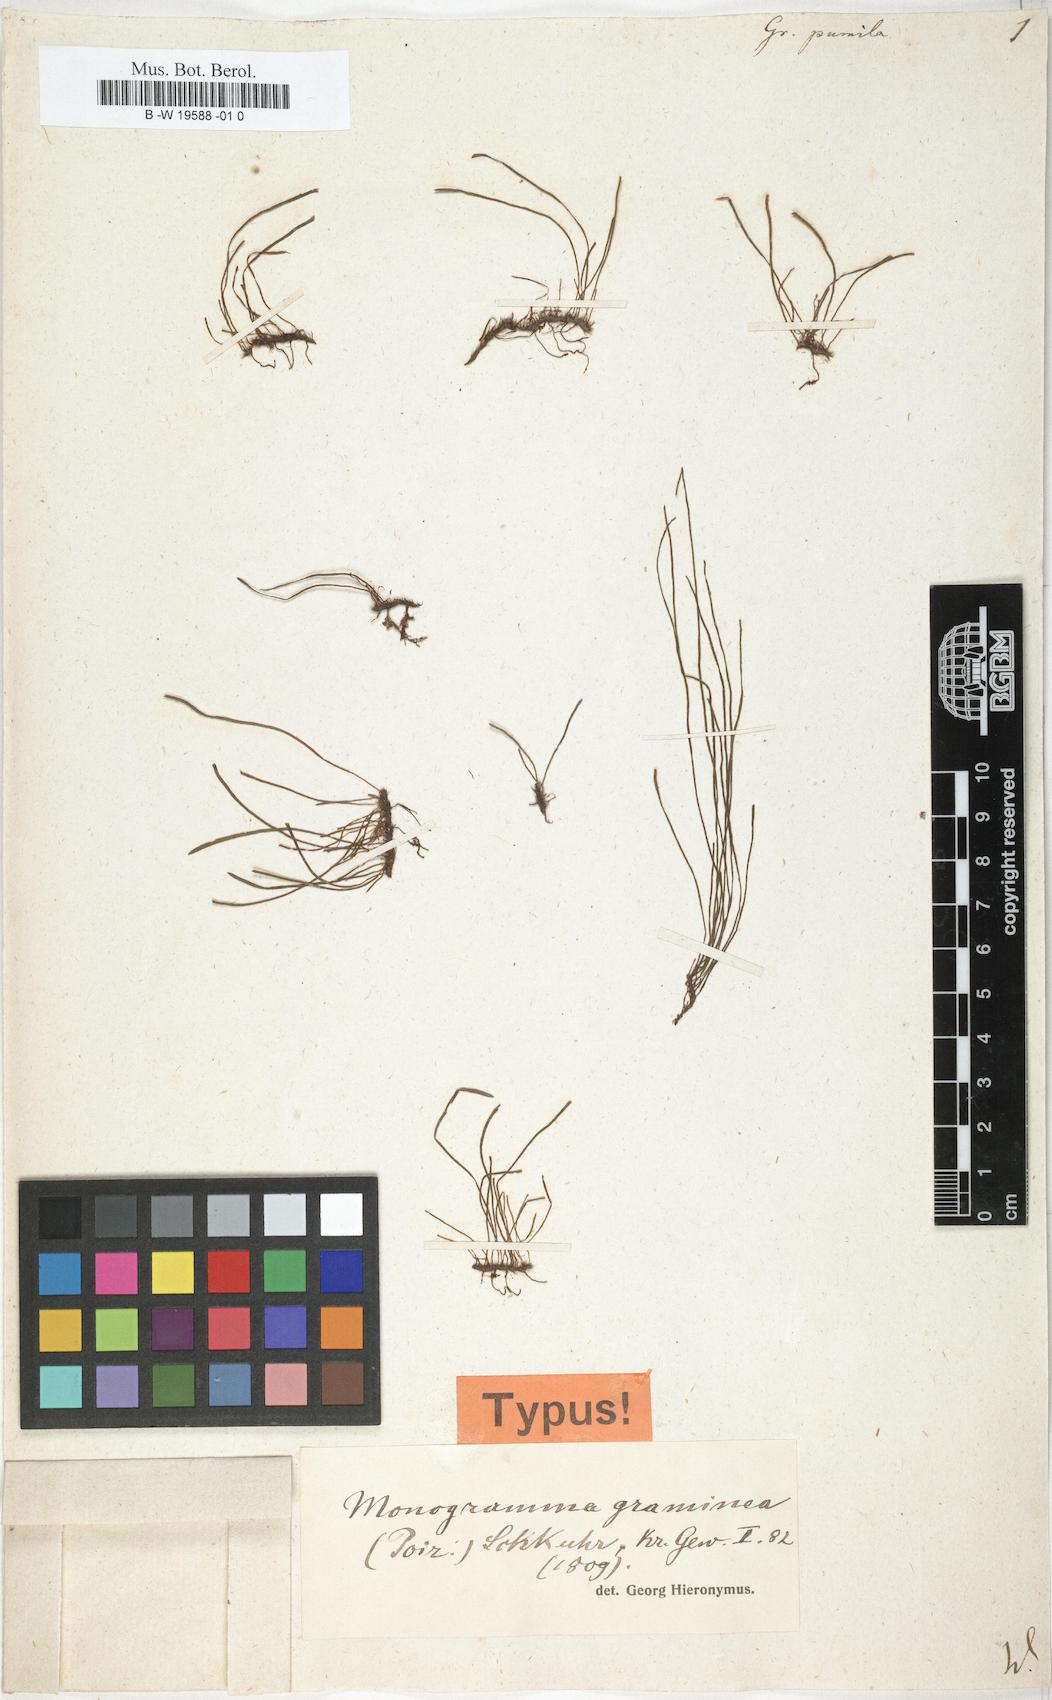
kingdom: Plantae
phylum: Tracheophyta
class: Polypodiopsida
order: Polypodiales
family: Polypodiaceae
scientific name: Polypodiaceae
